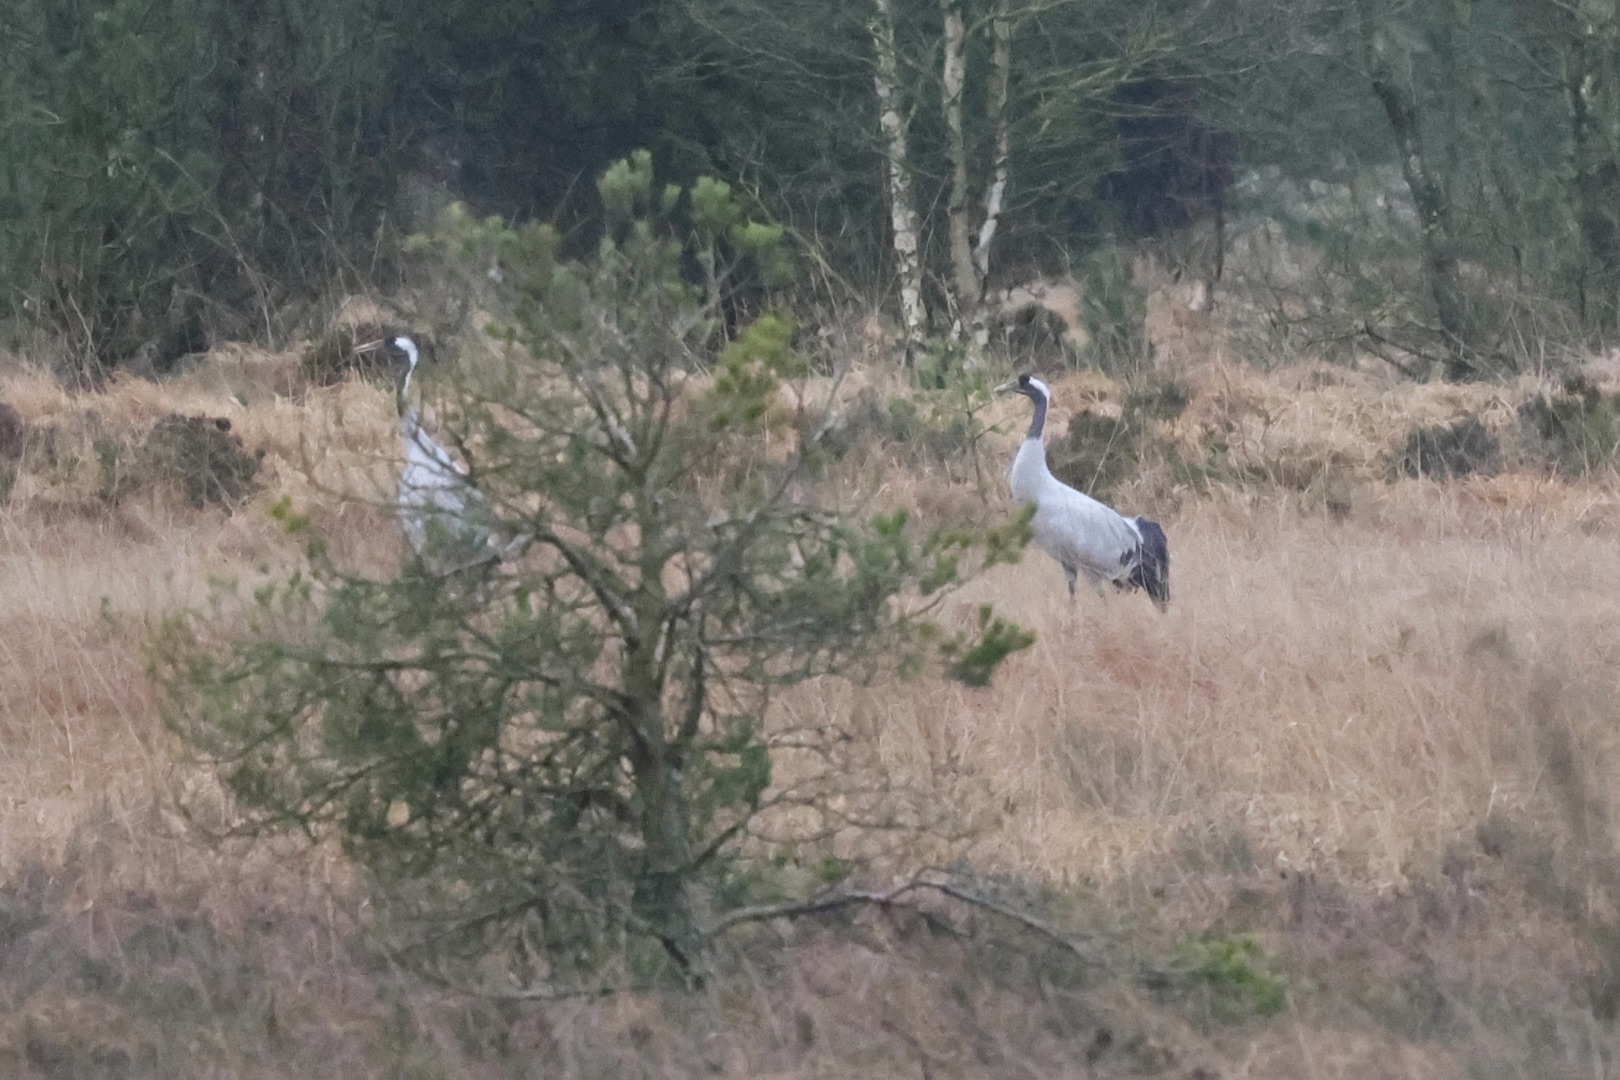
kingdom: Animalia
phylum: Chordata
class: Aves
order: Gruiformes
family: Gruidae
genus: Grus
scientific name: Grus grus
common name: Trane
